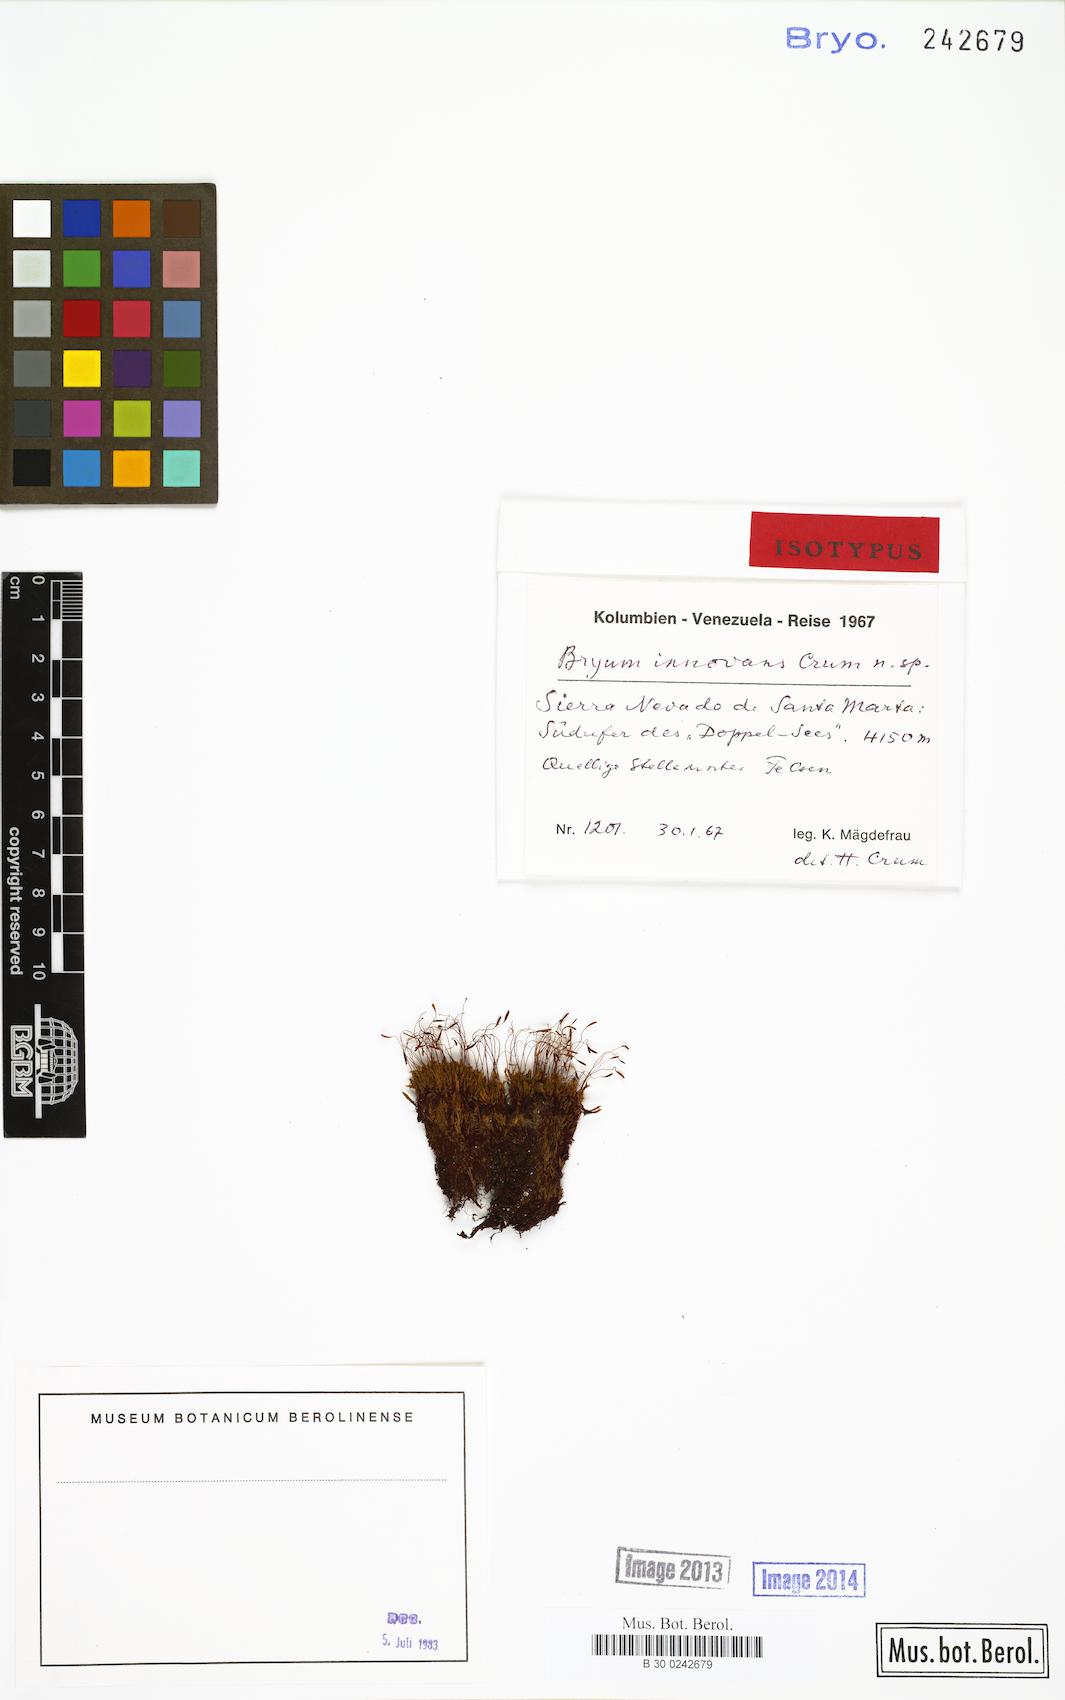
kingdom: Plantae
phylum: Bryophyta
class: Bryopsida
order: Bryales
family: Bryaceae
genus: Bryum
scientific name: Bryum innovans
